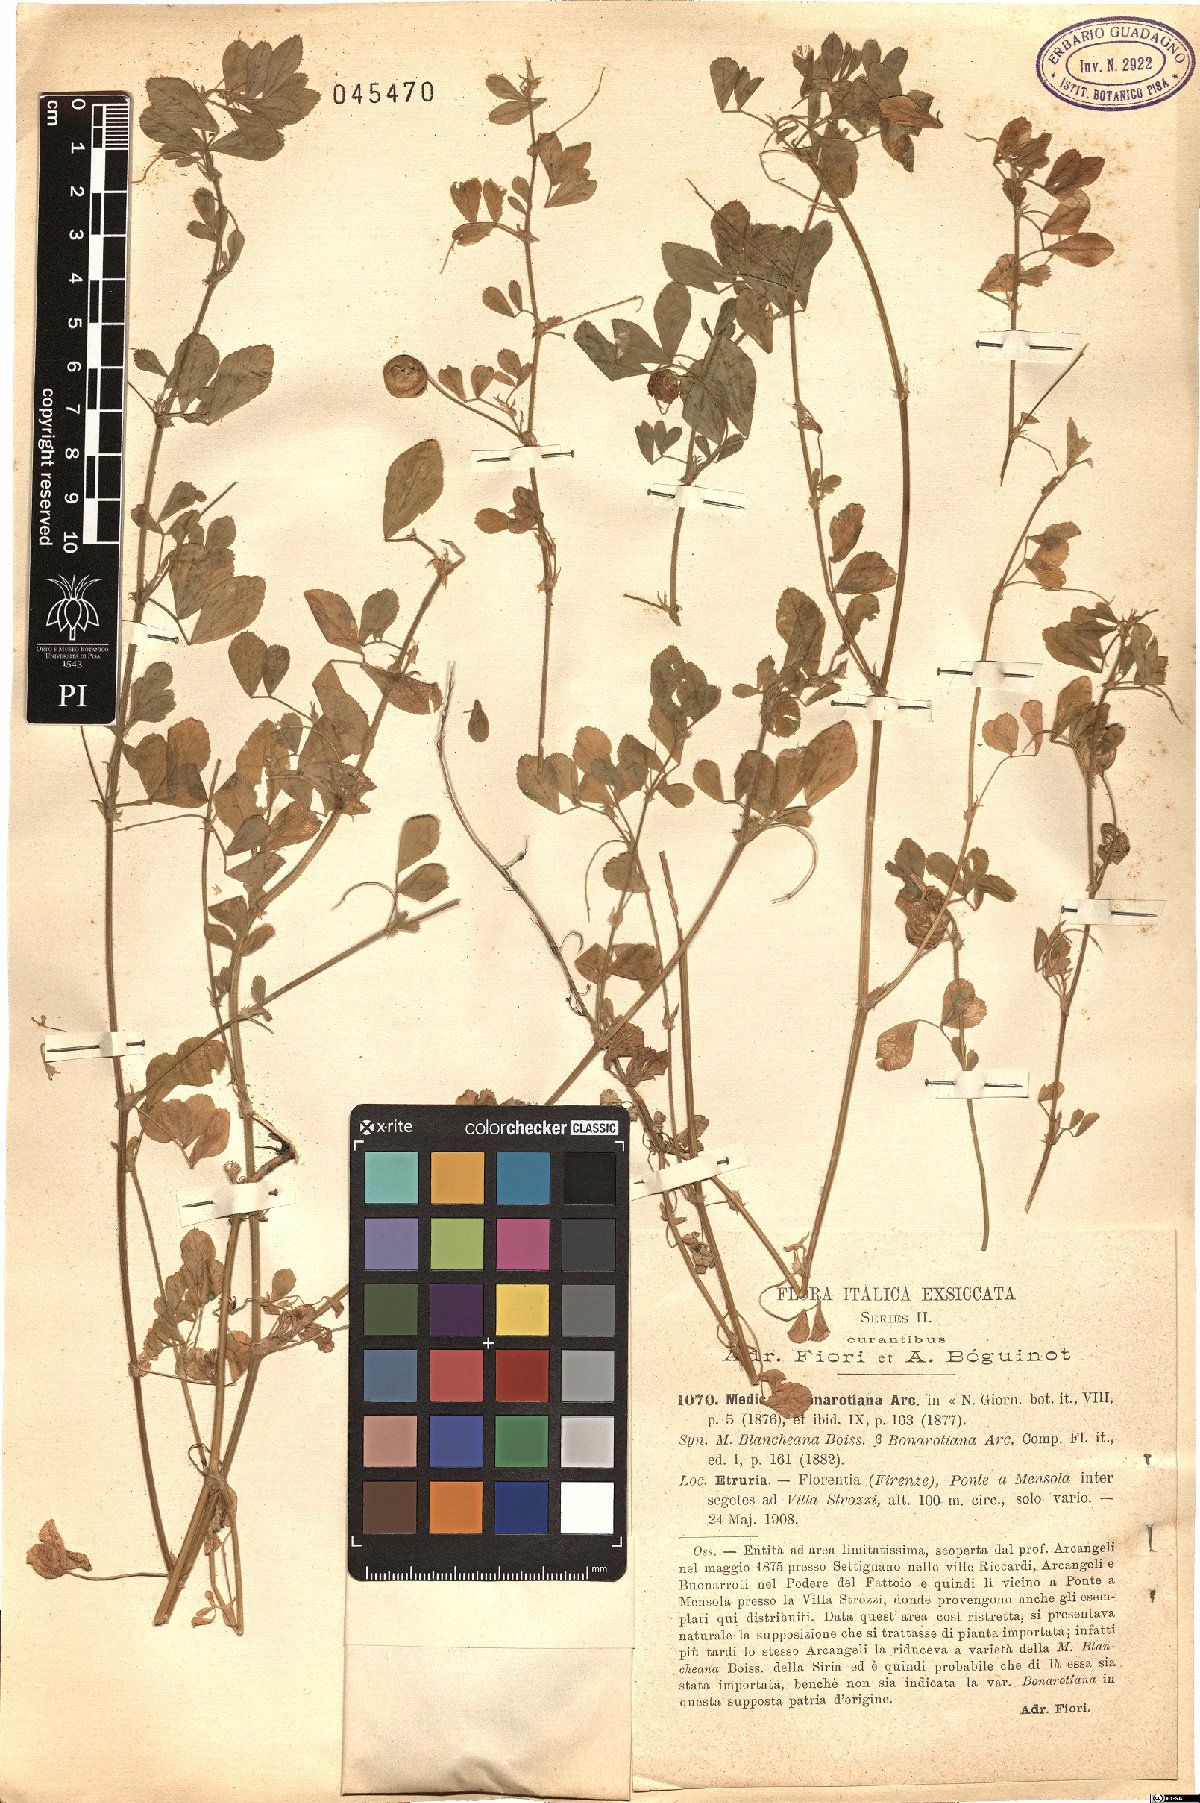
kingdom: Plantae
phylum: Tracheophyta
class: Magnoliopsida
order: Fabales
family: Fabaceae
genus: Medicago
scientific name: Medicago bonarotiana
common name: Wheel medic
